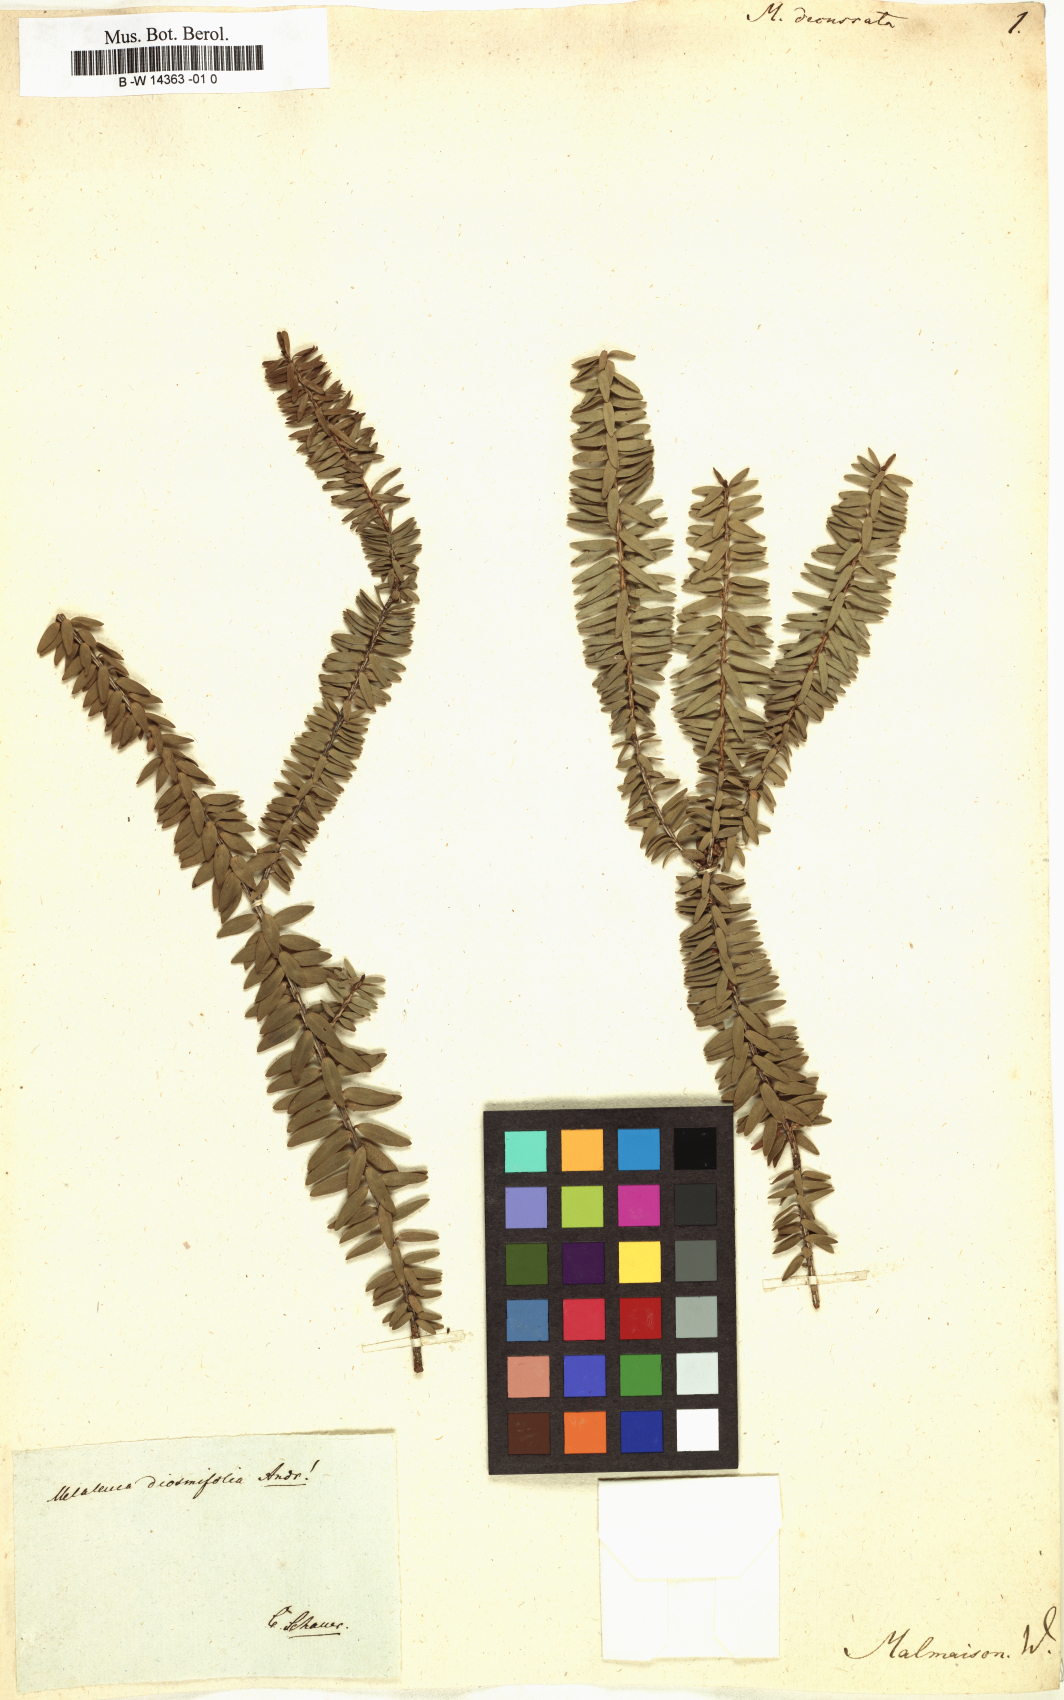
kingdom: Plantae
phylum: Tracheophyta
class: Magnoliopsida
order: Myrtales
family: Myrtaceae
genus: Melaleuca
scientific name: Melaleuca decussata
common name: Cross-leaf honey myrtle
